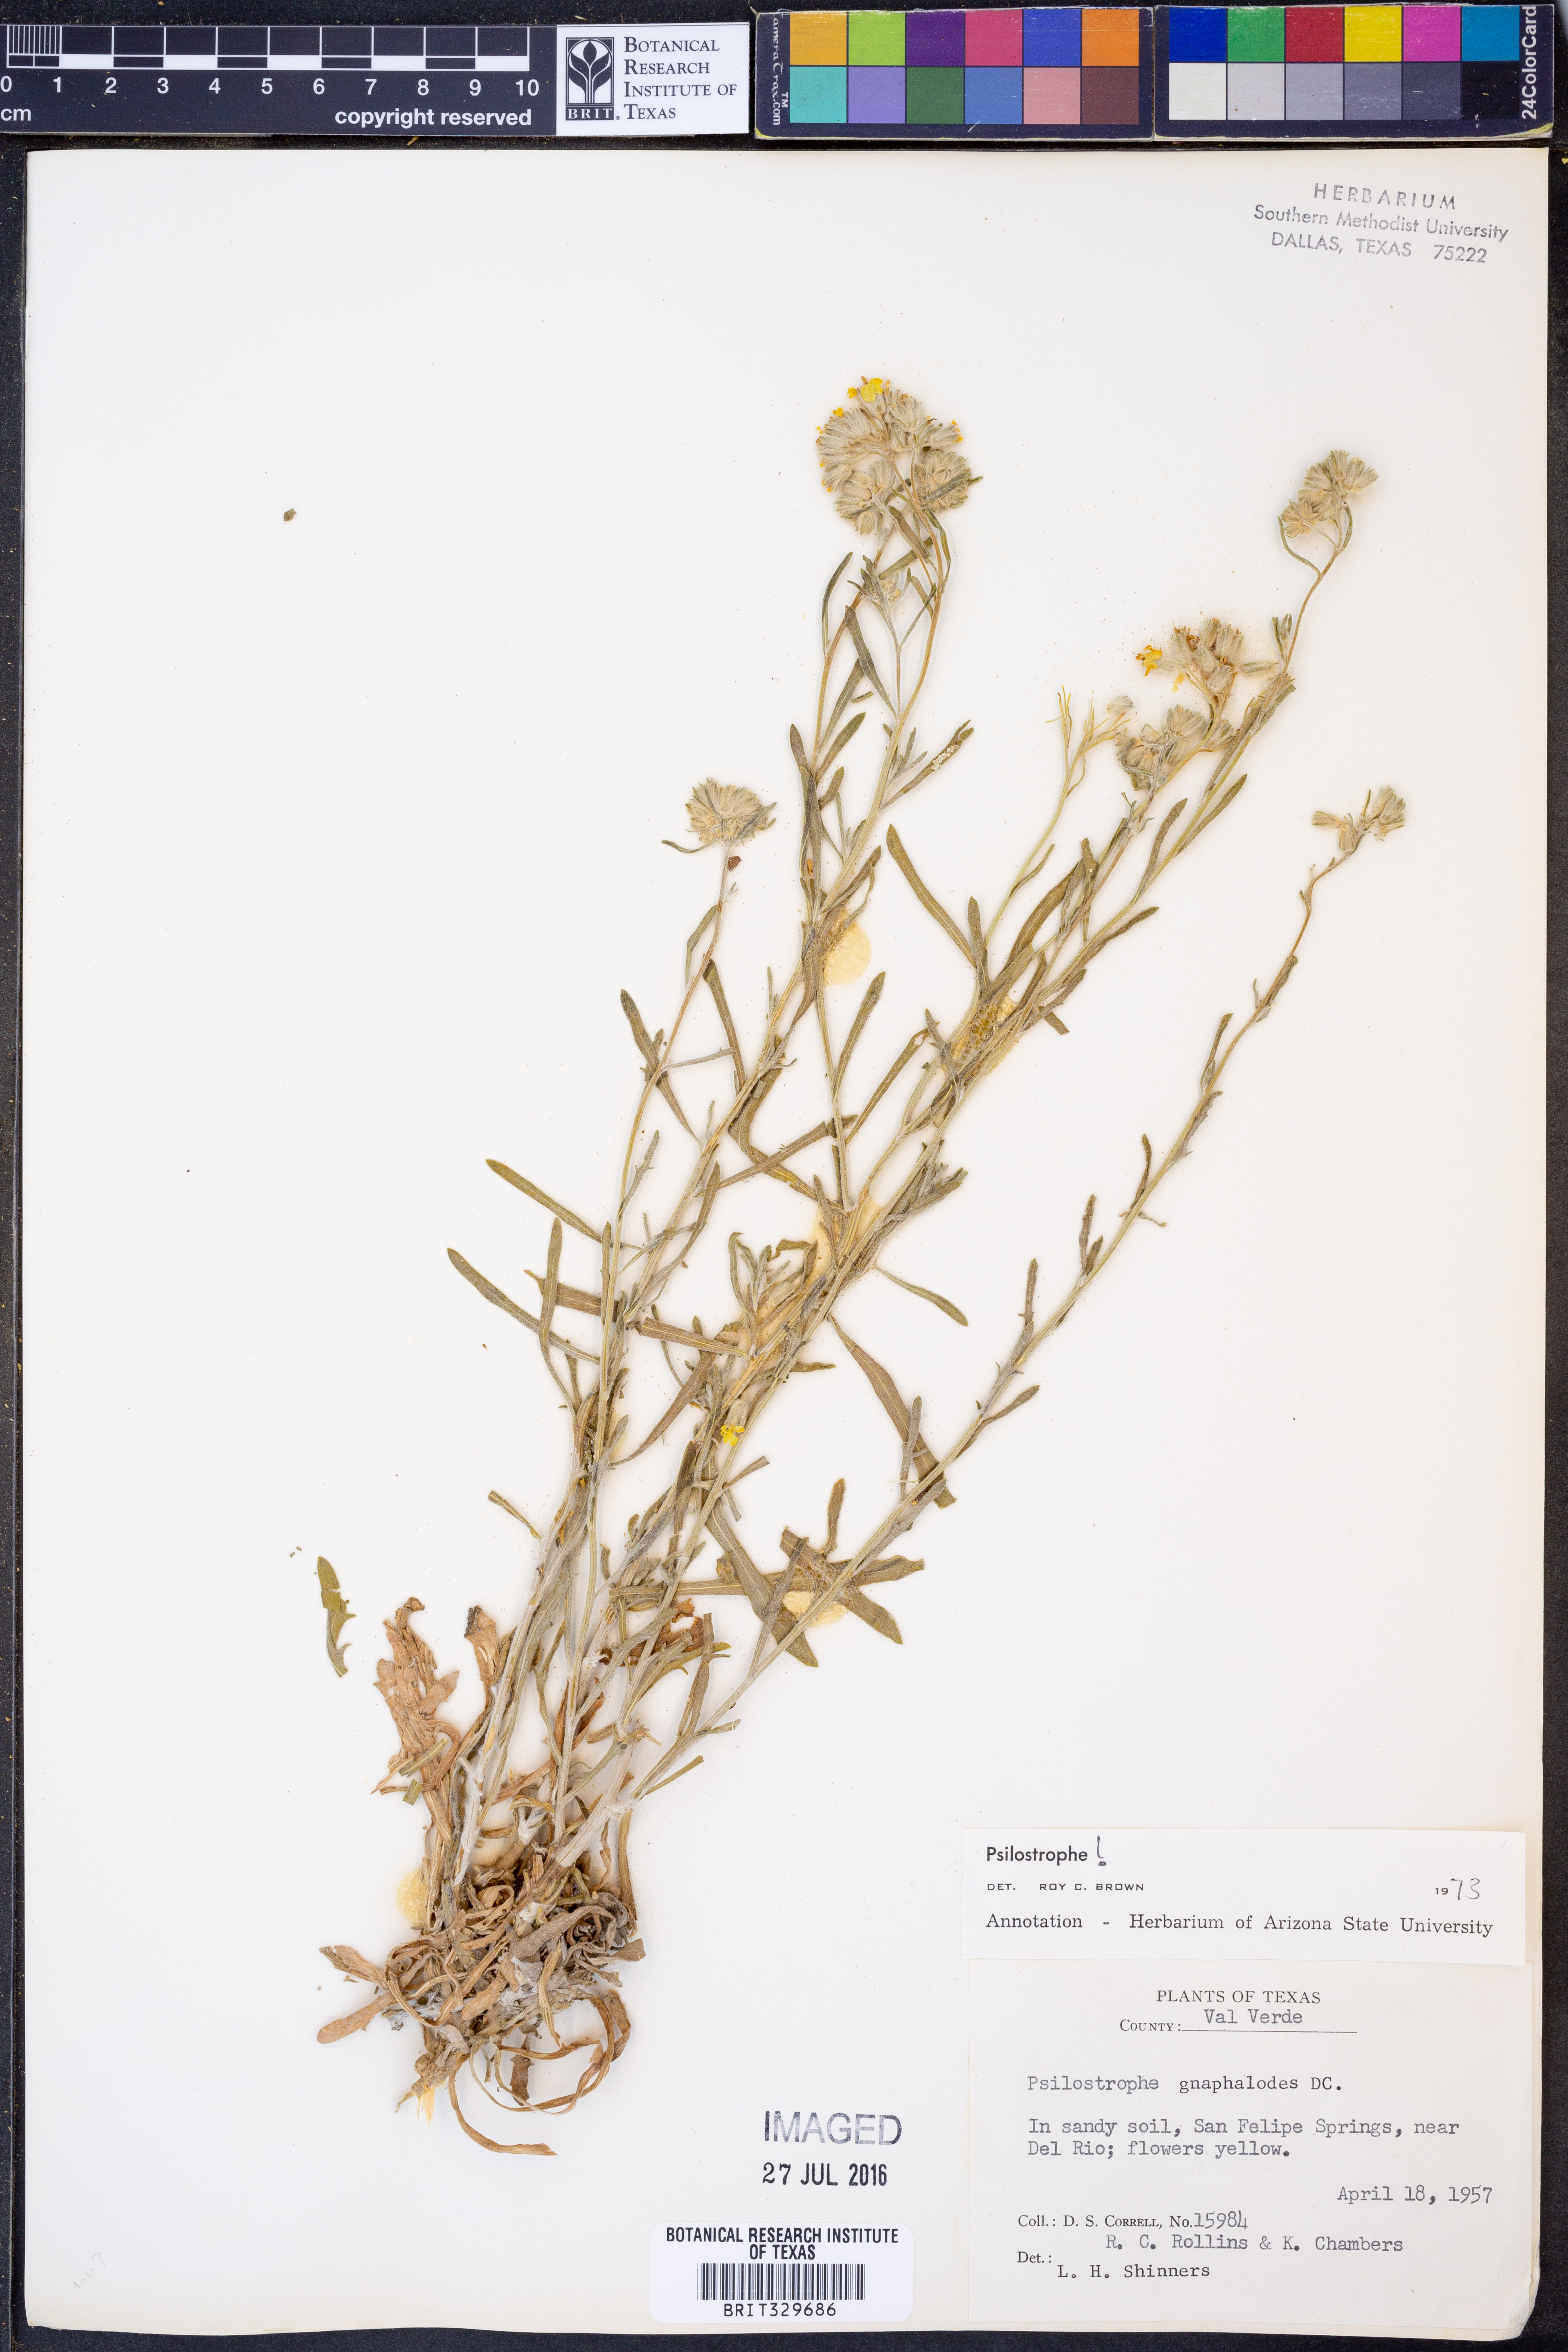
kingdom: Plantae
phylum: Tracheophyta
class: Magnoliopsida
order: Asterales
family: Asteraceae
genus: Psilostrophe
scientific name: Psilostrophe gnaphalioides
